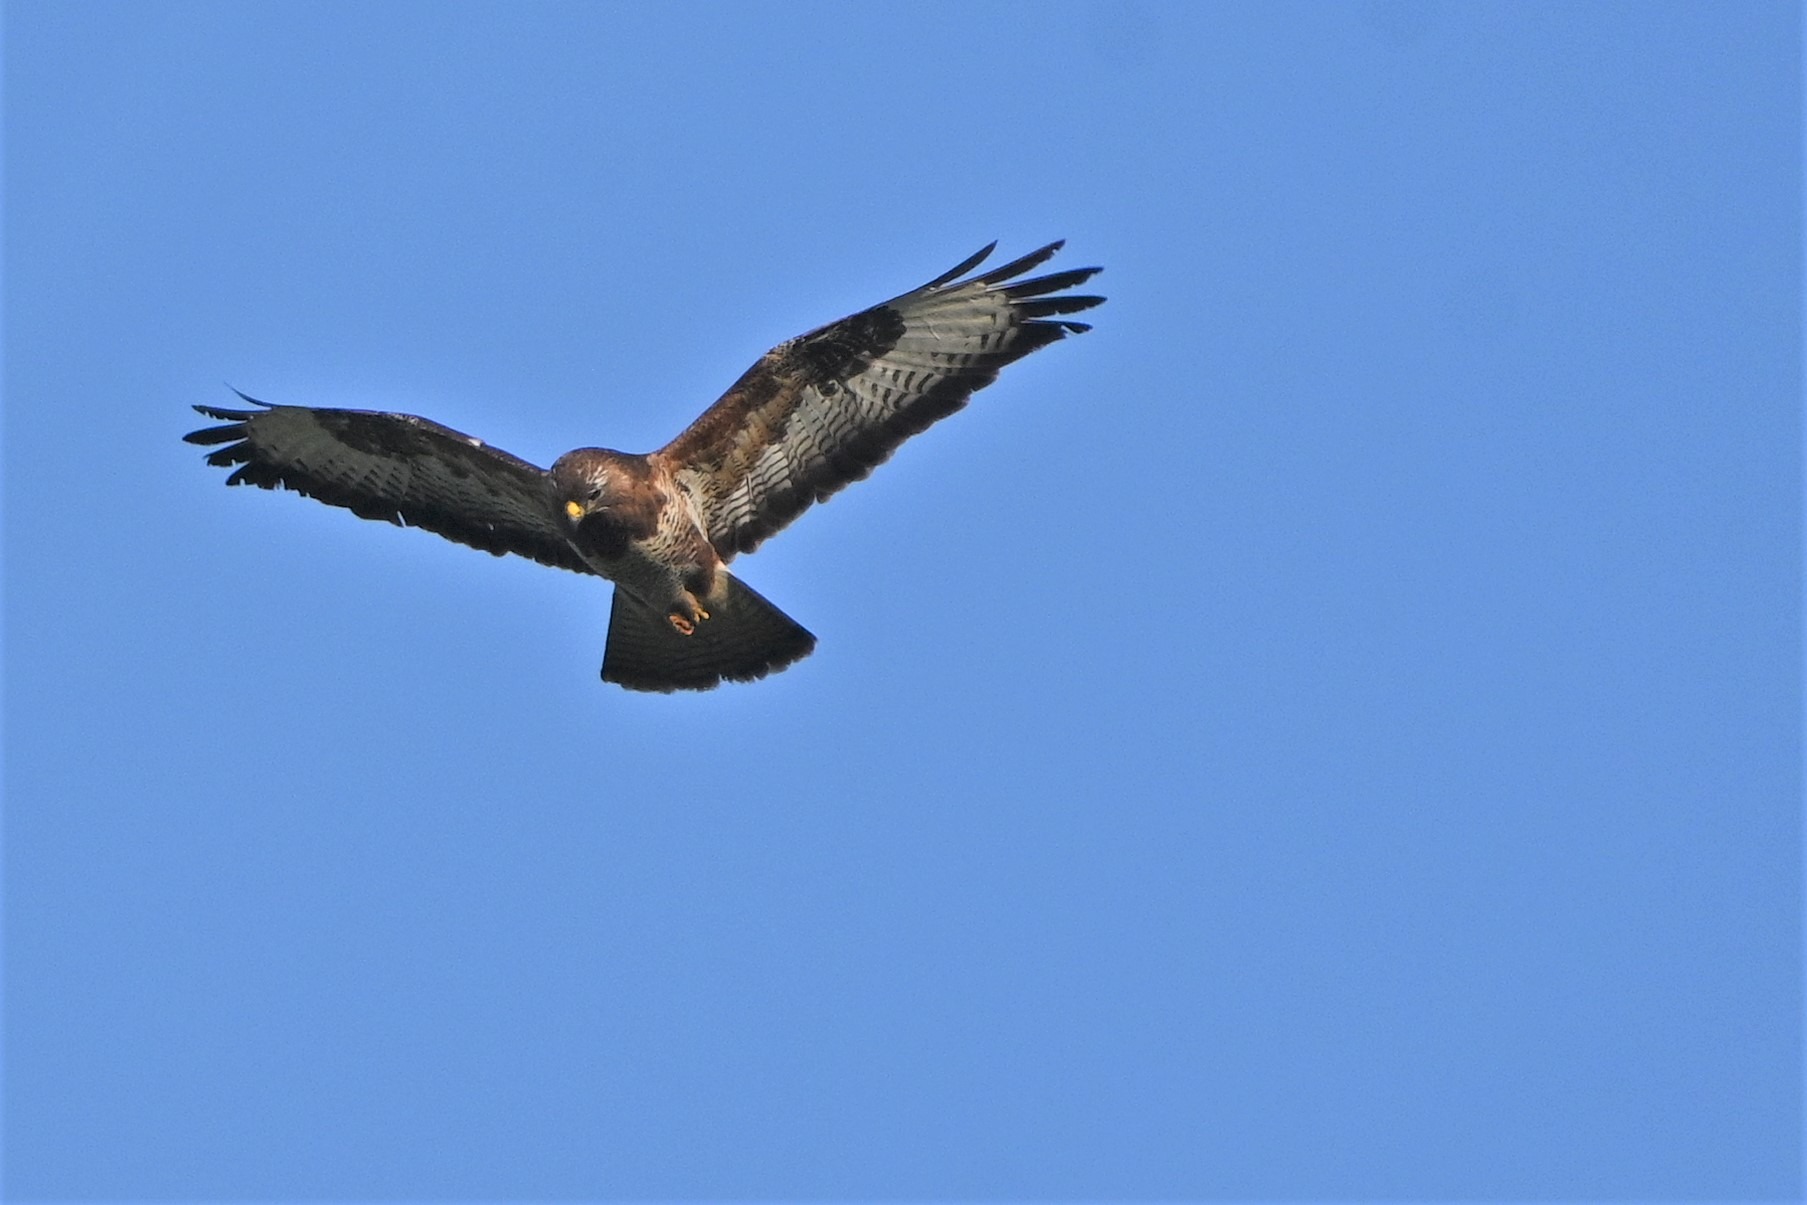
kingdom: Animalia
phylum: Chordata
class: Aves
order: Accipitriformes
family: Accipitridae
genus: Buteo
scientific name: Buteo buteo
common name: Musvåge
